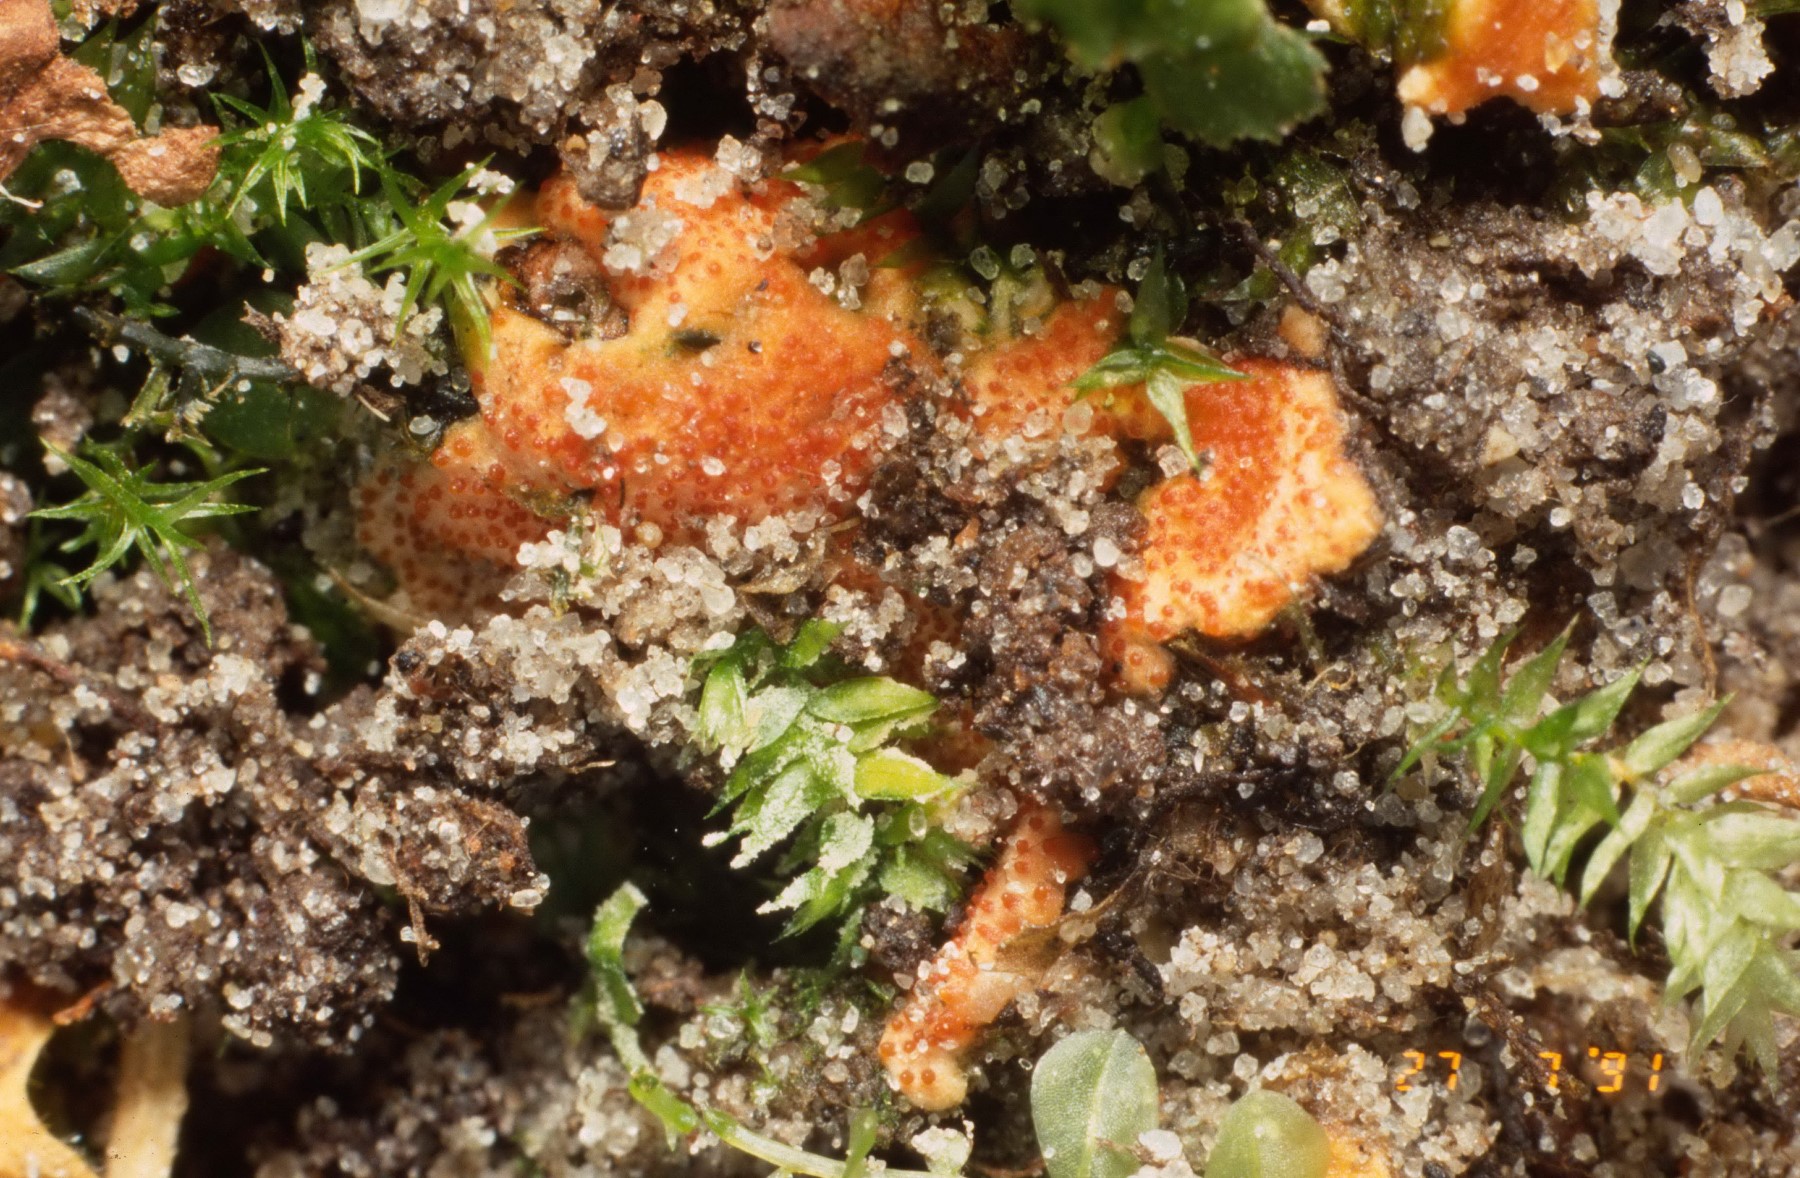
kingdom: Fungi
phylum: Ascomycota
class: Sordariomycetes
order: Hypocreales
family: Hypocreaceae
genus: Hypomyces
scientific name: Hypomyces ochraceus
